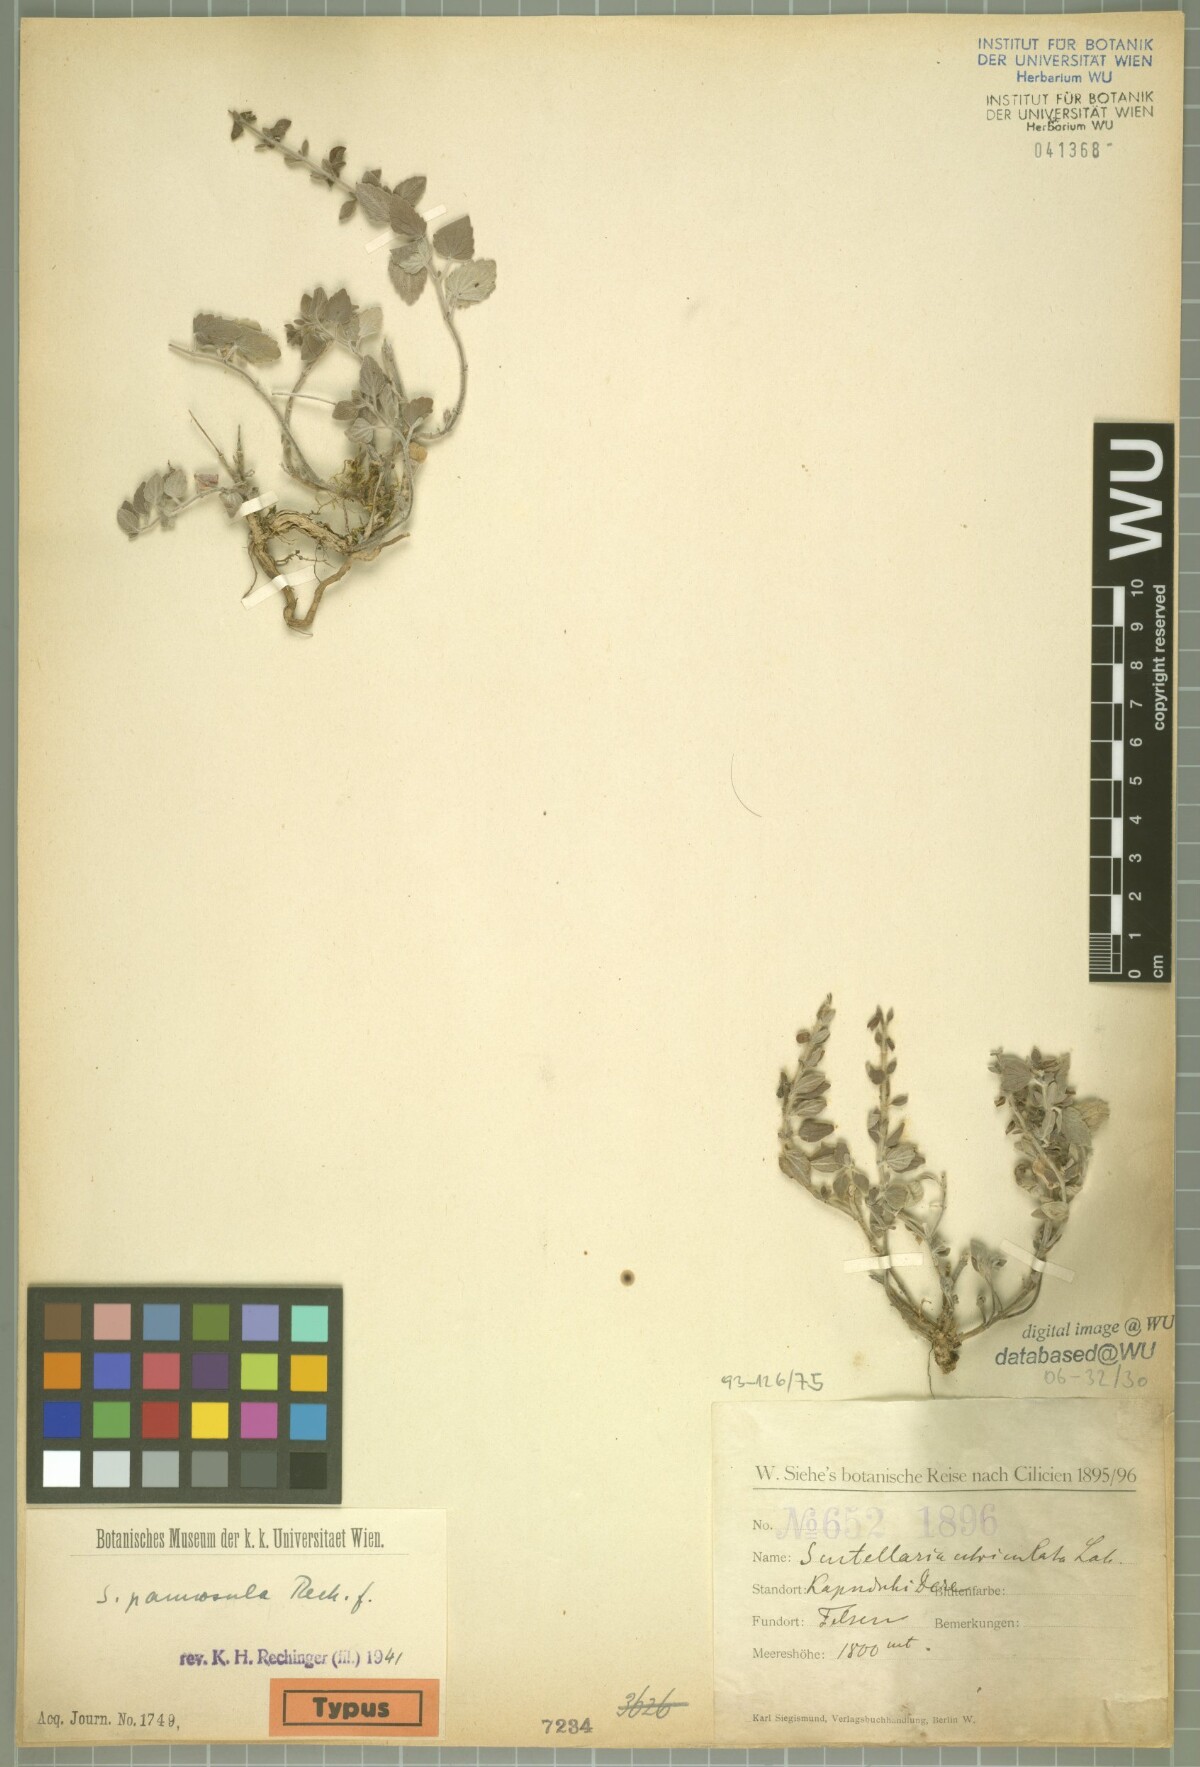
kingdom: Plantae
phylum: Tracheophyta
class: Magnoliopsida
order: Lamiales
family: Lamiaceae
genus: Scutellaria
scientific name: Scutellaria brevibracteata
